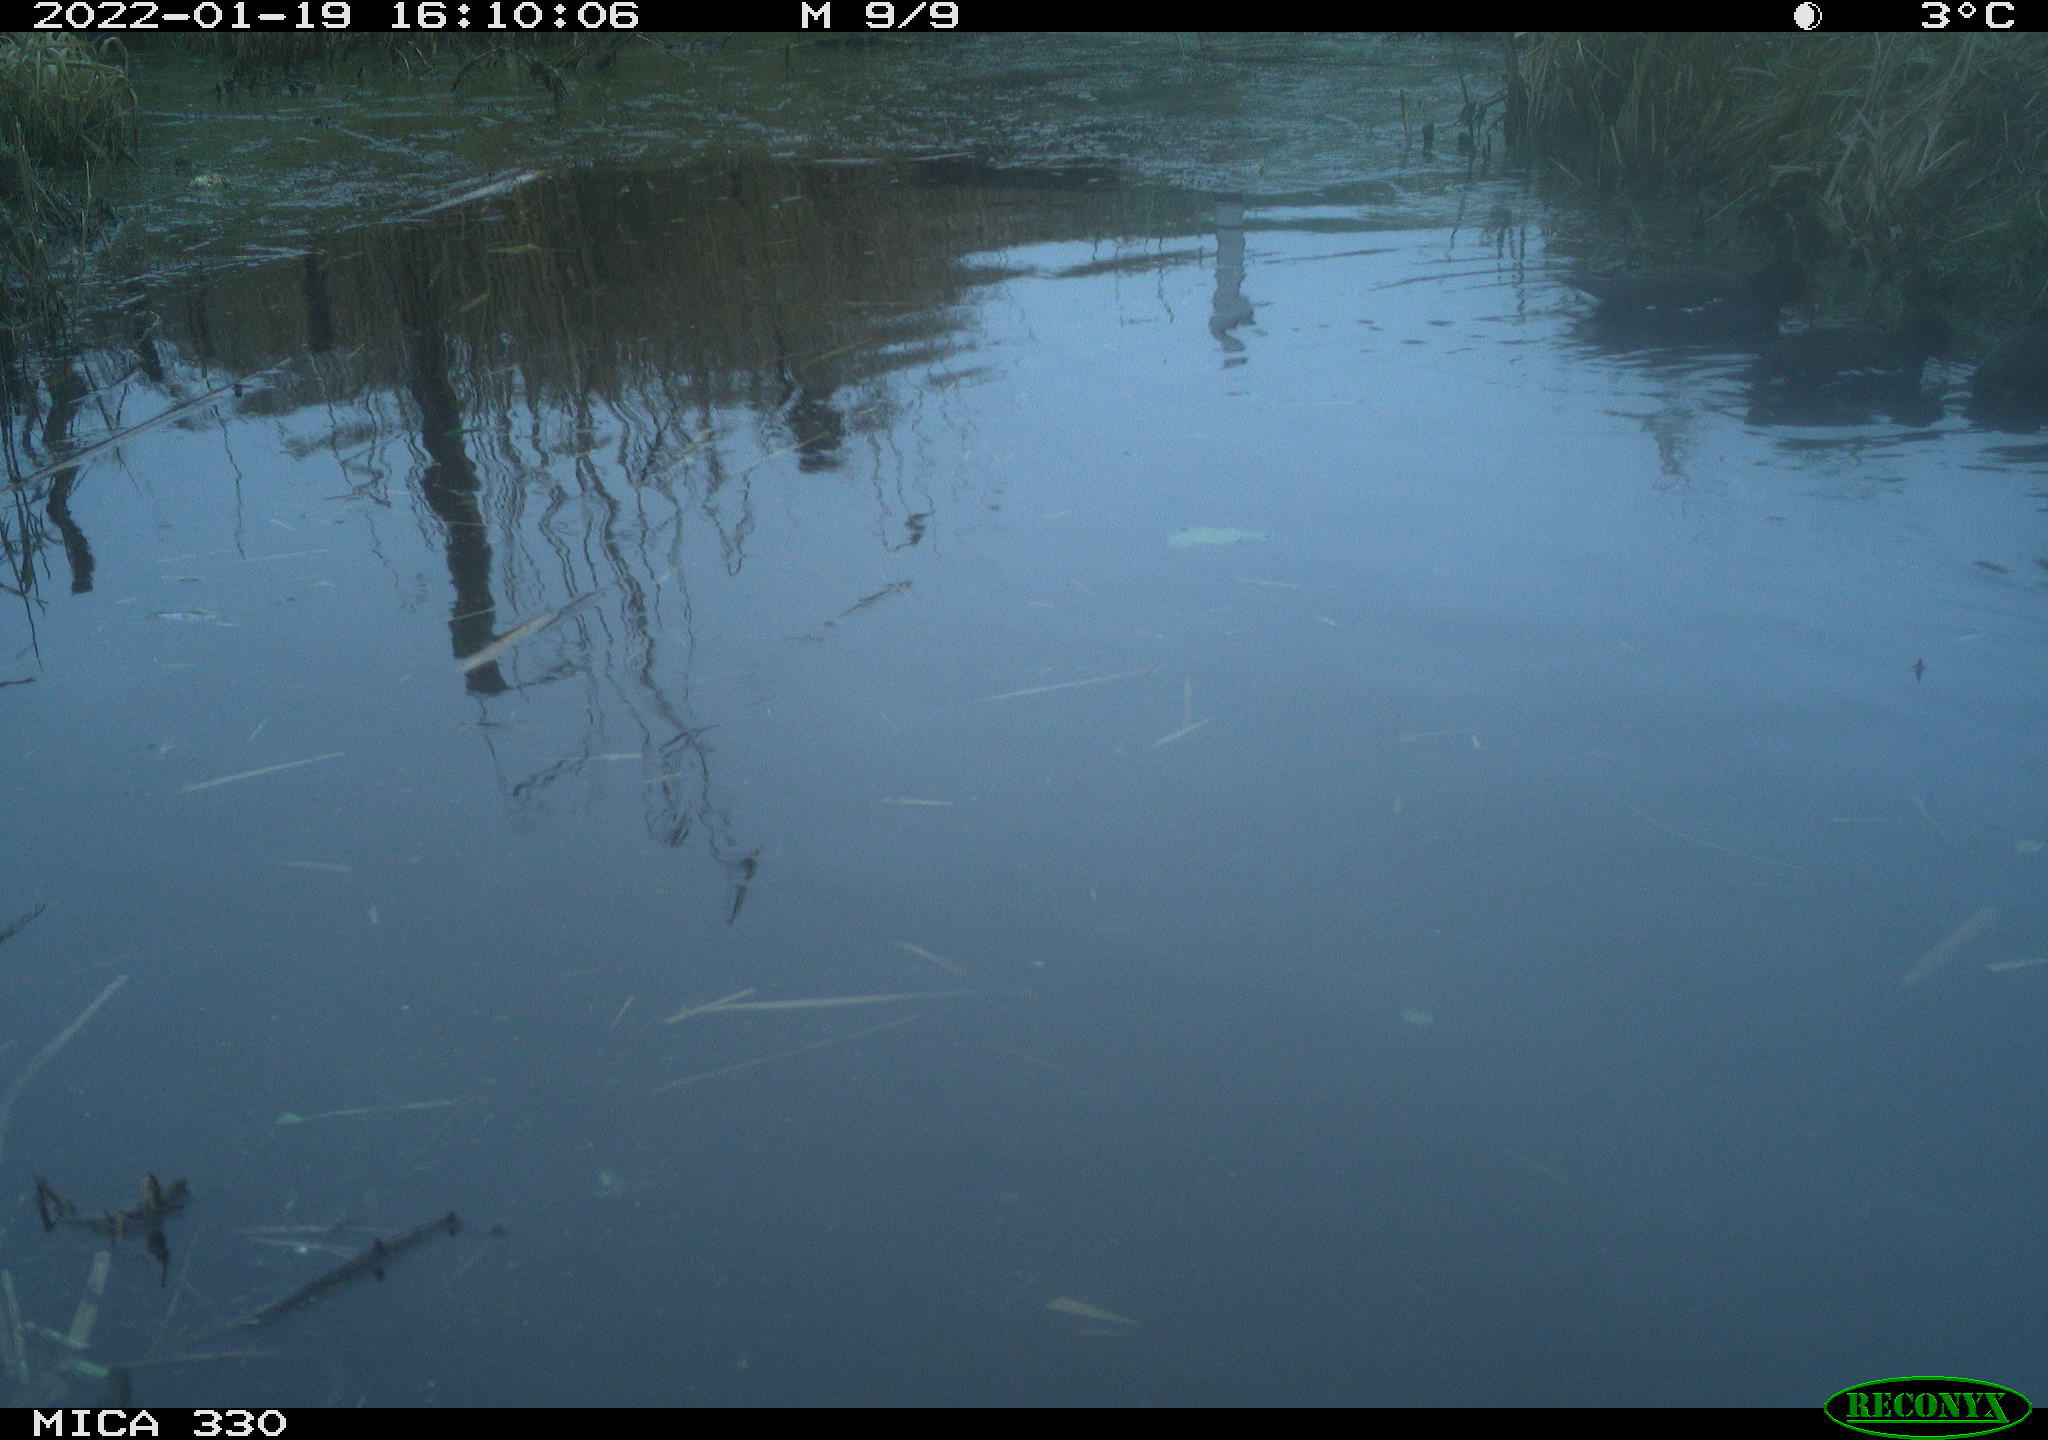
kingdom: Animalia
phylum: Chordata
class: Aves
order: Gruiformes
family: Rallidae
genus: Gallinula
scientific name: Gallinula chloropus
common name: Common moorhen
